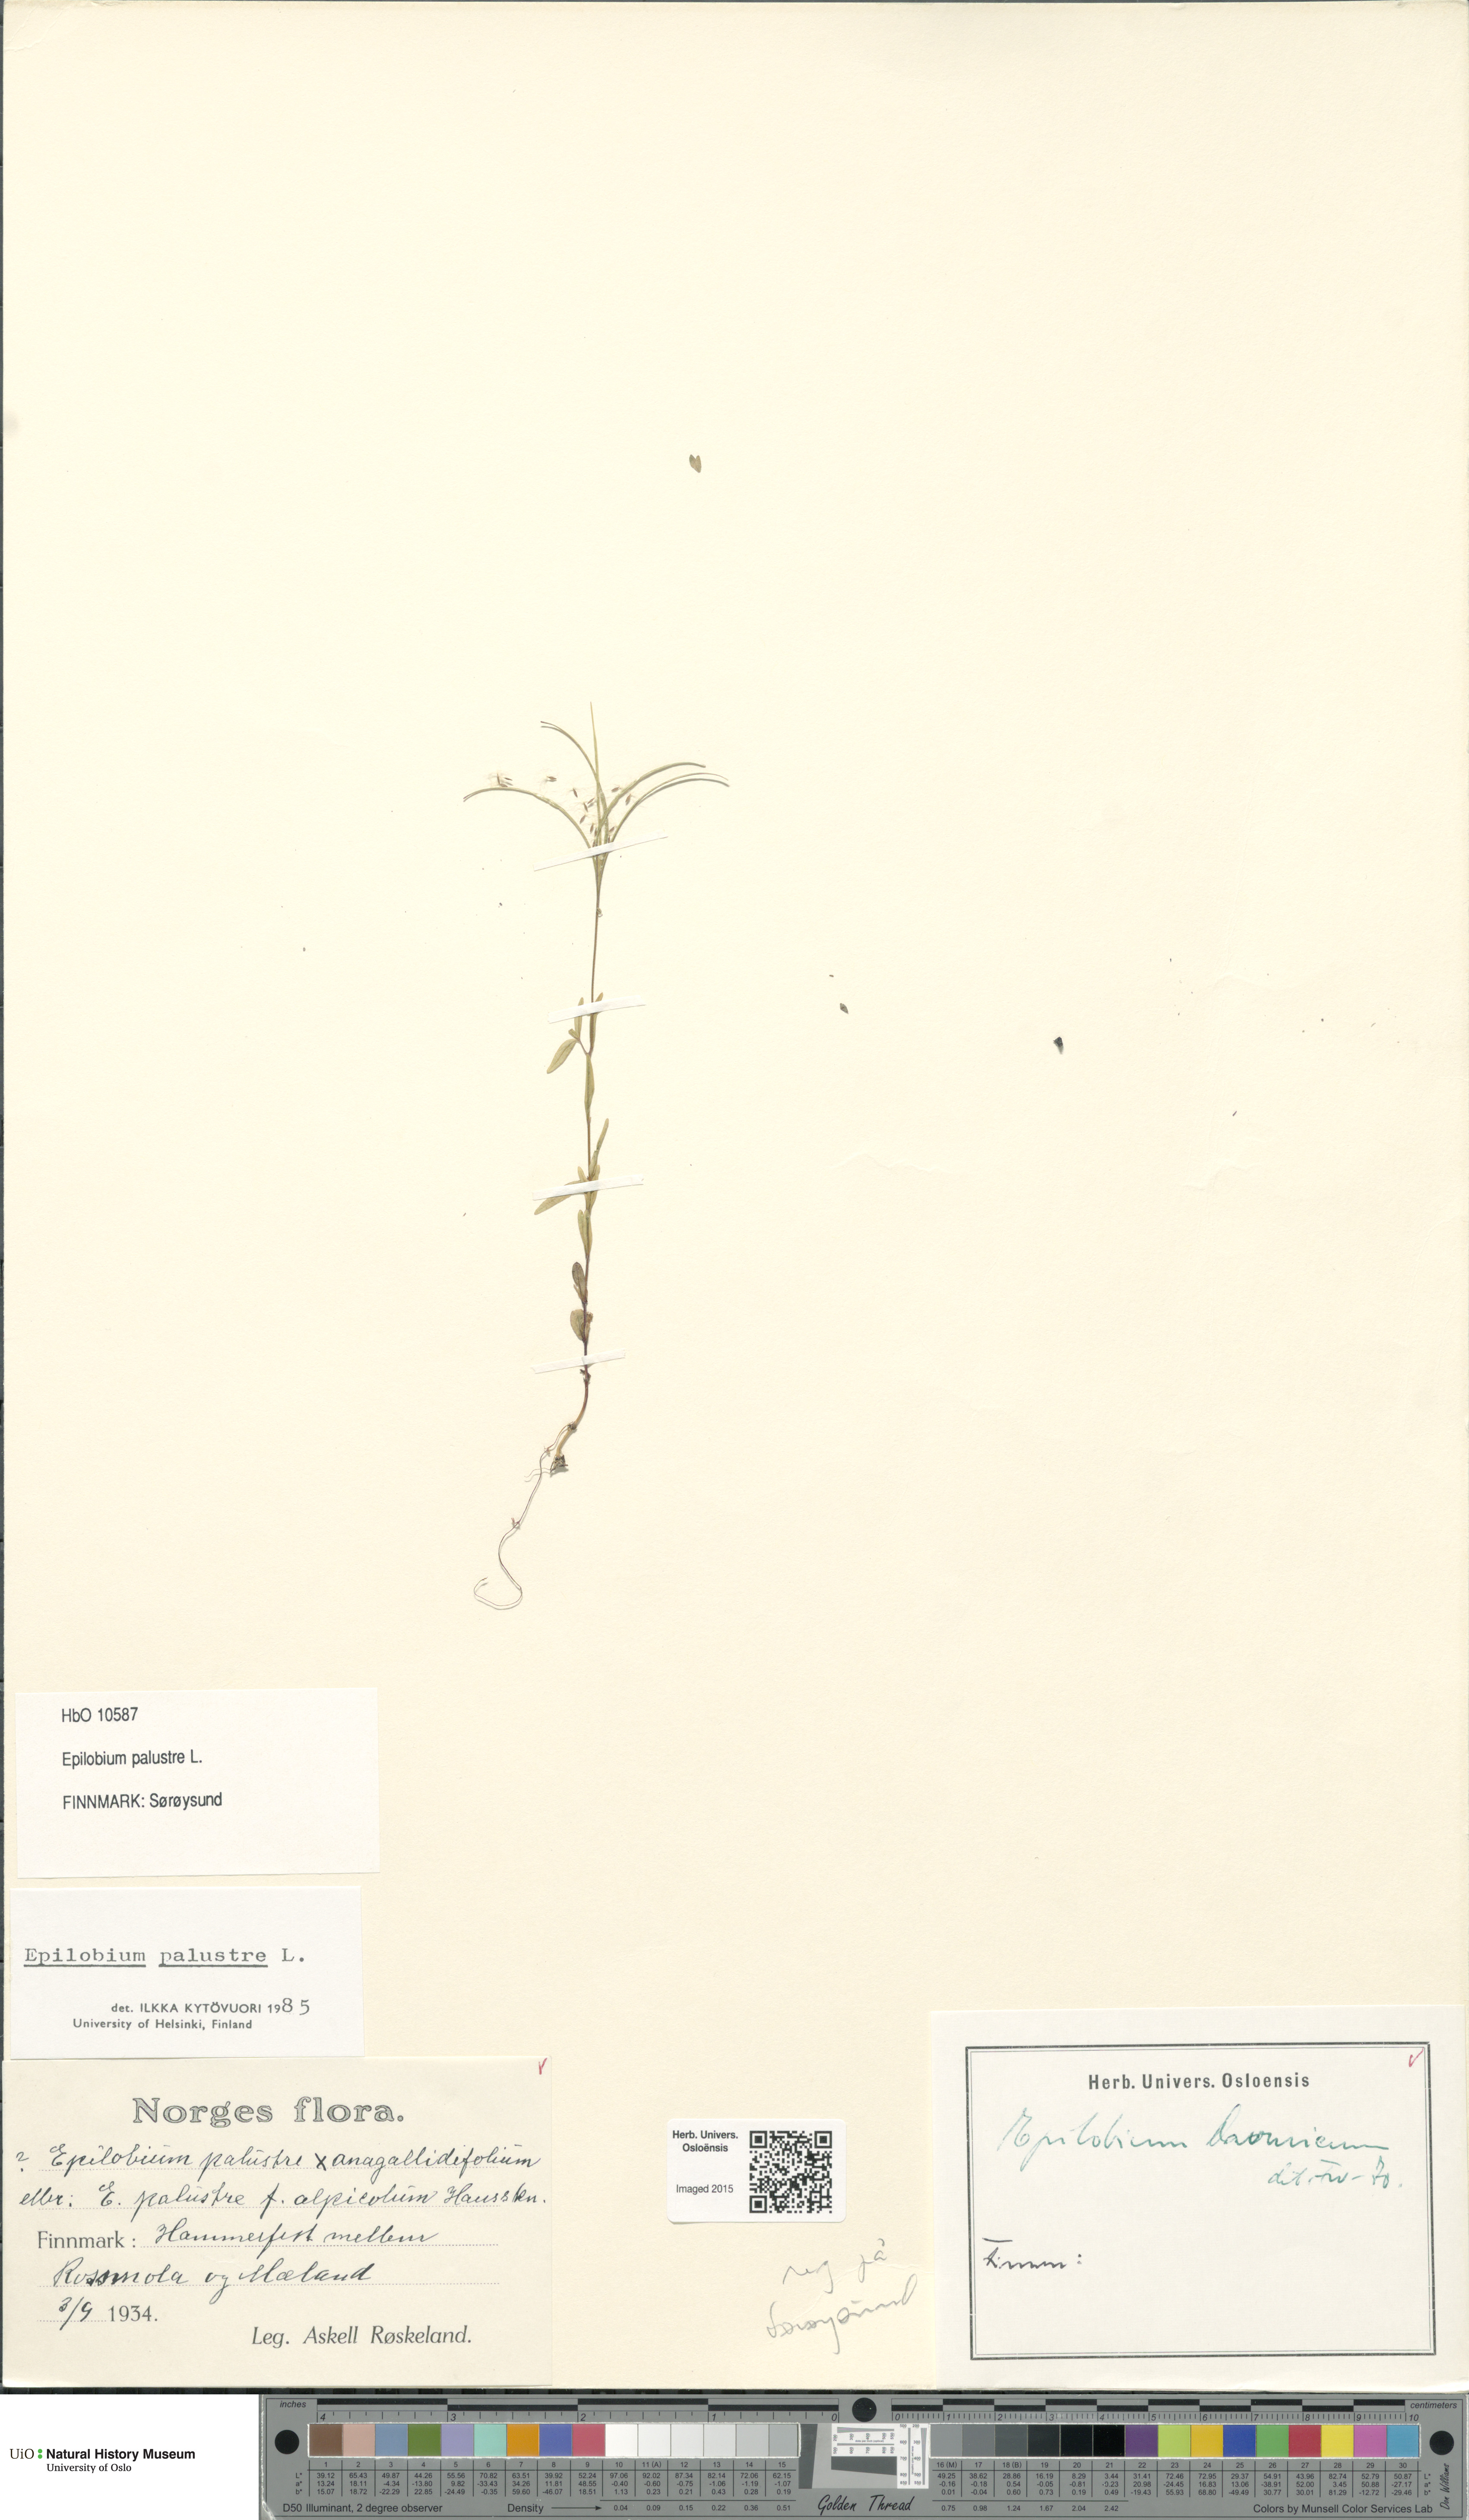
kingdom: Plantae
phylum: Tracheophyta
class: Magnoliopsida
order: Myrtales
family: Onagraceae
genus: Epilobium
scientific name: Epilobium palustre
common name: Marsh willowherb
